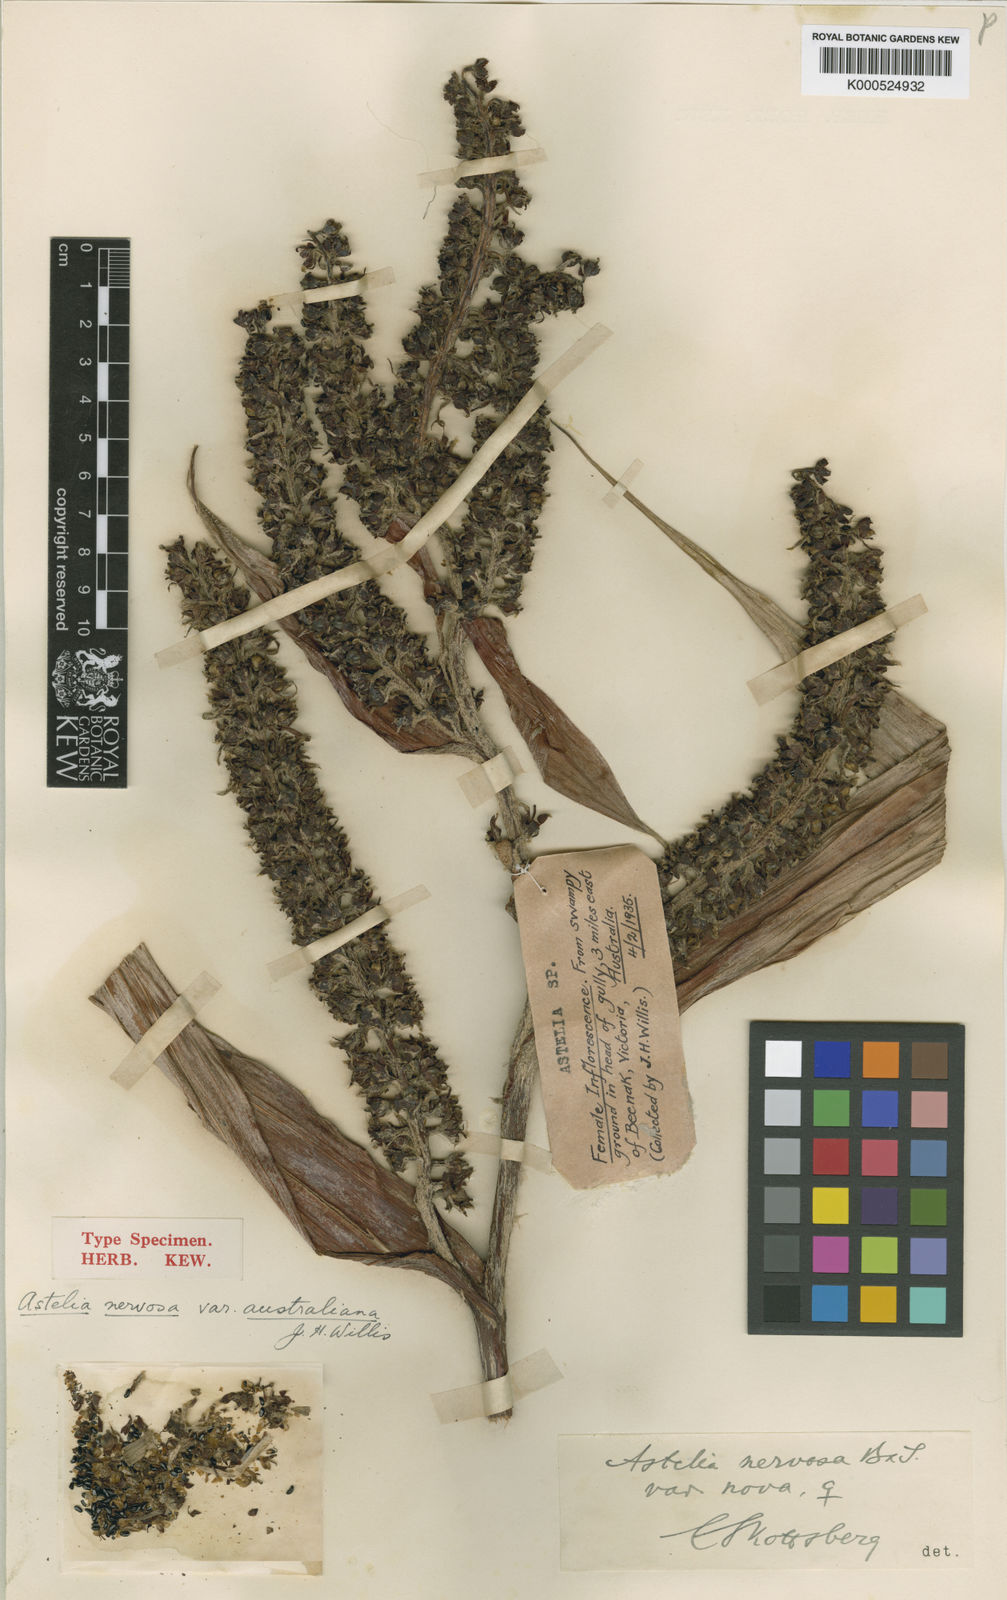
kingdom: Plantae
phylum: Tracheophyta
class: Liliopsida
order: Asparagales
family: Asteliaceae
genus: Astelia
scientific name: Astelia australiana
